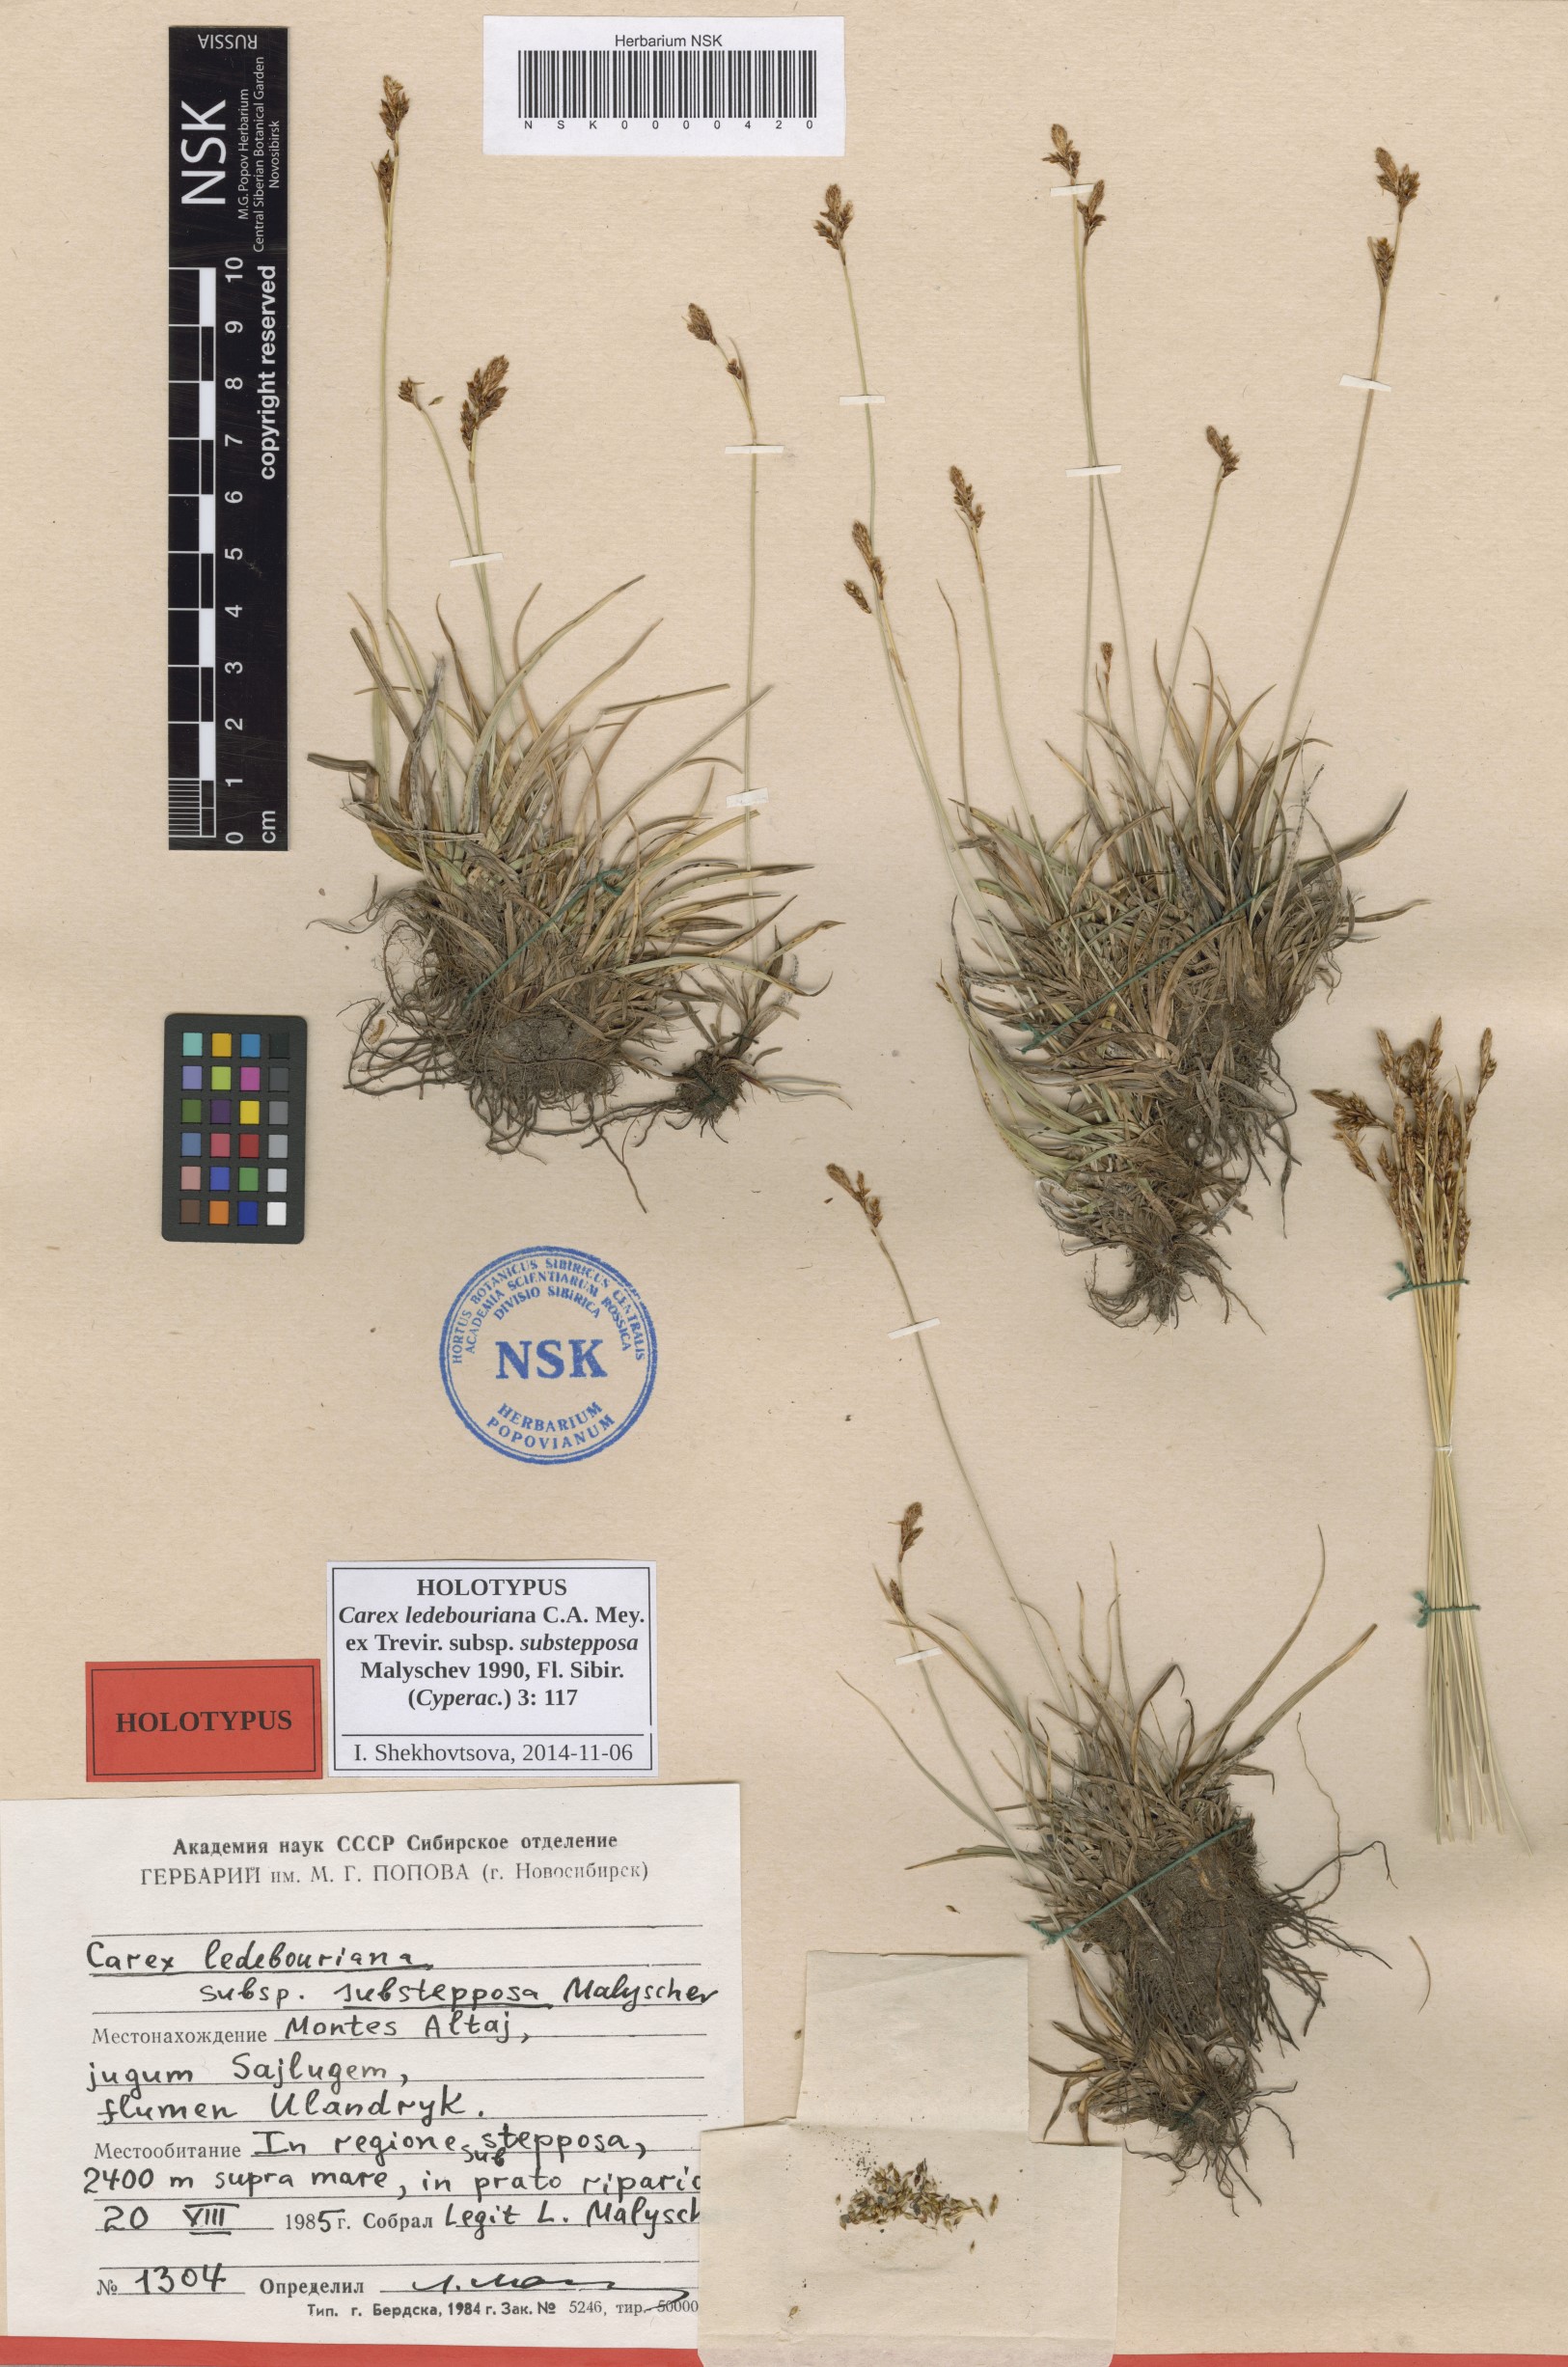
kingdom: Plantae
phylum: Tracheophyta
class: Liliopsida
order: Poales
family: Cyperaceae
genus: Carex
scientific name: Carex ledebouriana
